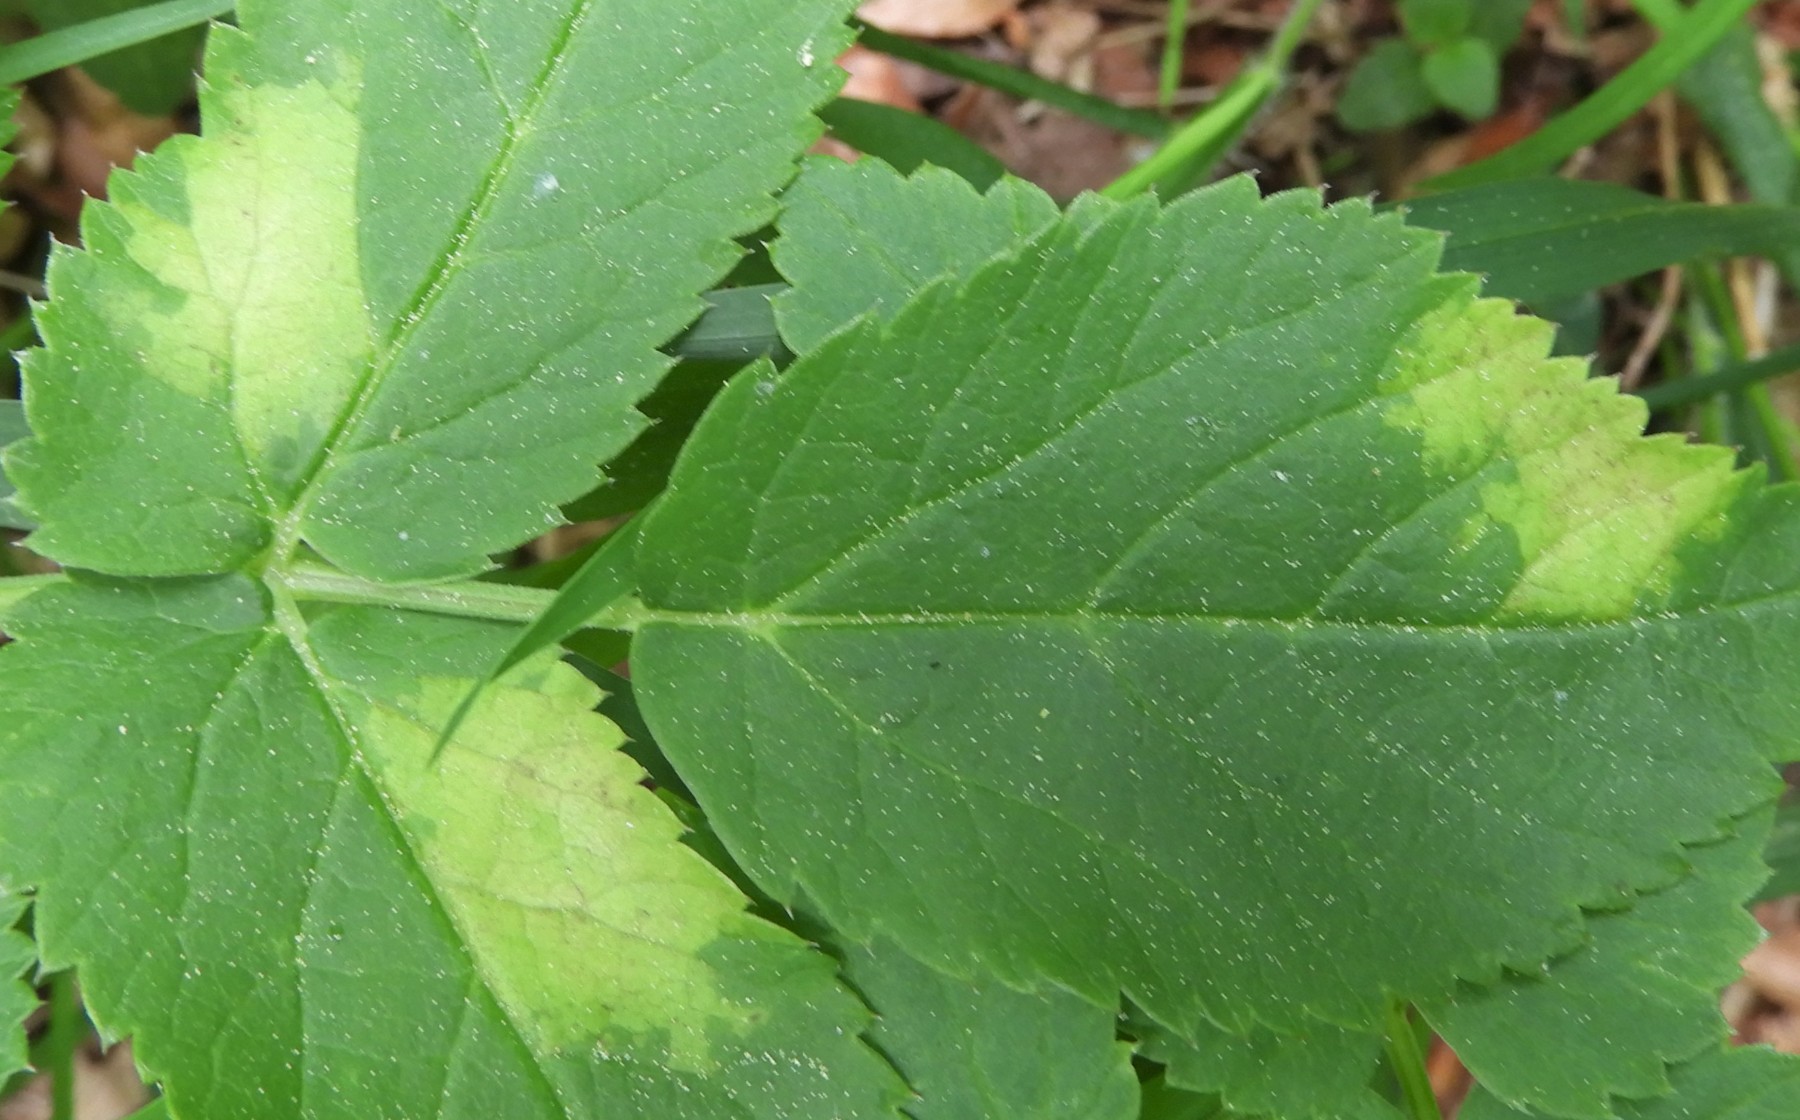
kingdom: Chromista
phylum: Oomycota
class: Peronosporea
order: Peronosporales
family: Peronosporaceae
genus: Peronospora
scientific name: Peronospora crustosa
